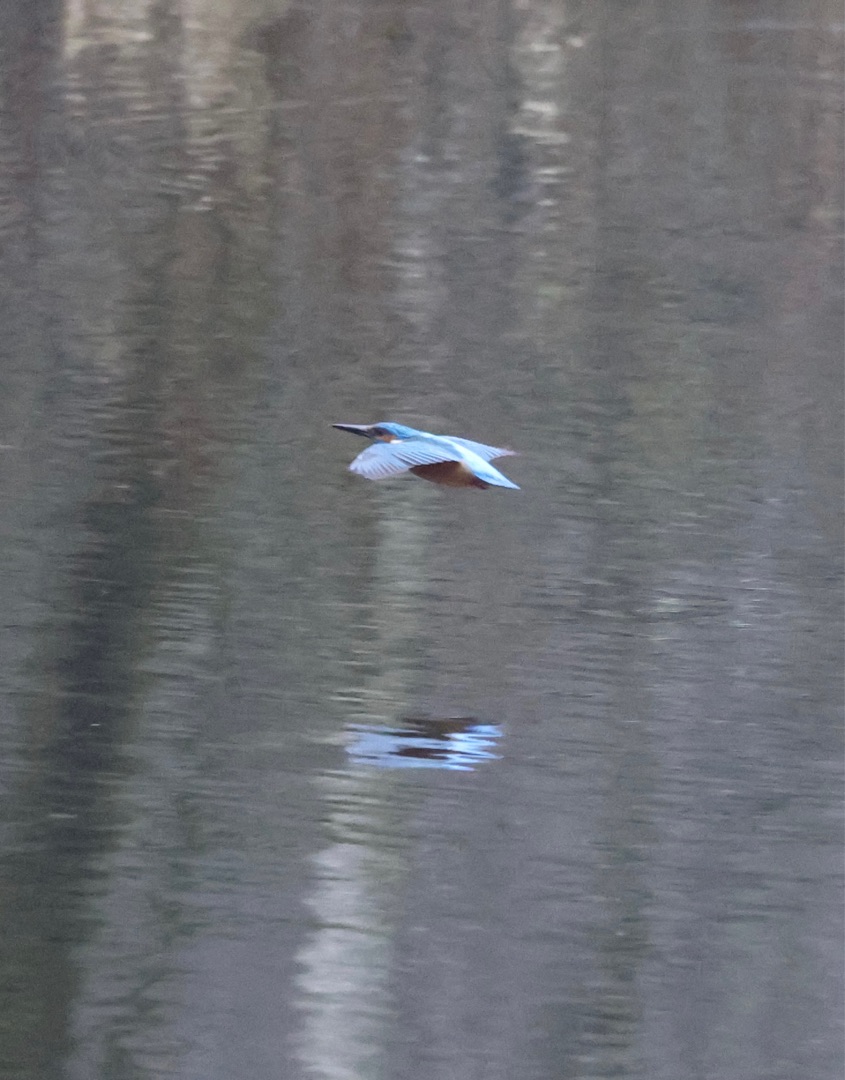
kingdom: Animalia
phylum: Chordata
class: Aves
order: Coraciiformes
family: Alcedinidae
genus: Alcedo
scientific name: Alcedo atthis
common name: Isfugl
